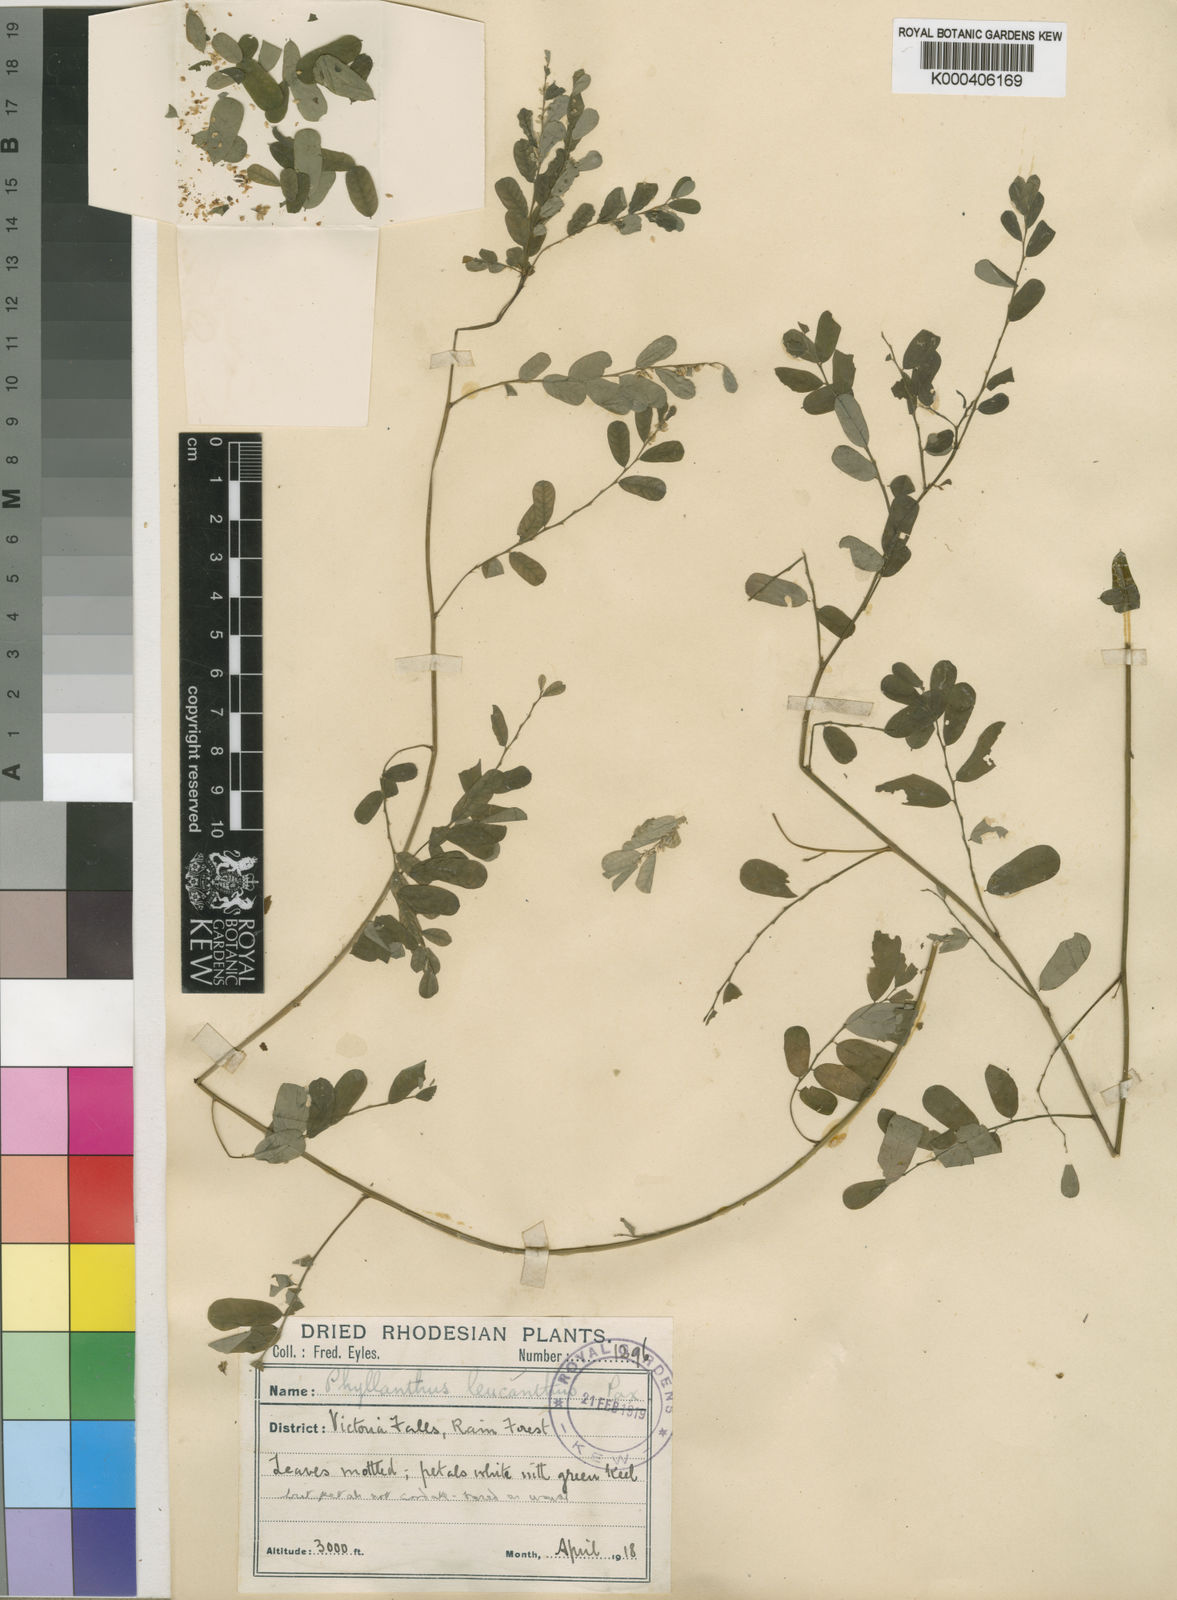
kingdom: Plantae
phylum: Tracheophyta
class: Magnoliopsida
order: Malpighiales
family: Phyllanthaceae
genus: Phyllanthus
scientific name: Phyllanthus leucanthus
